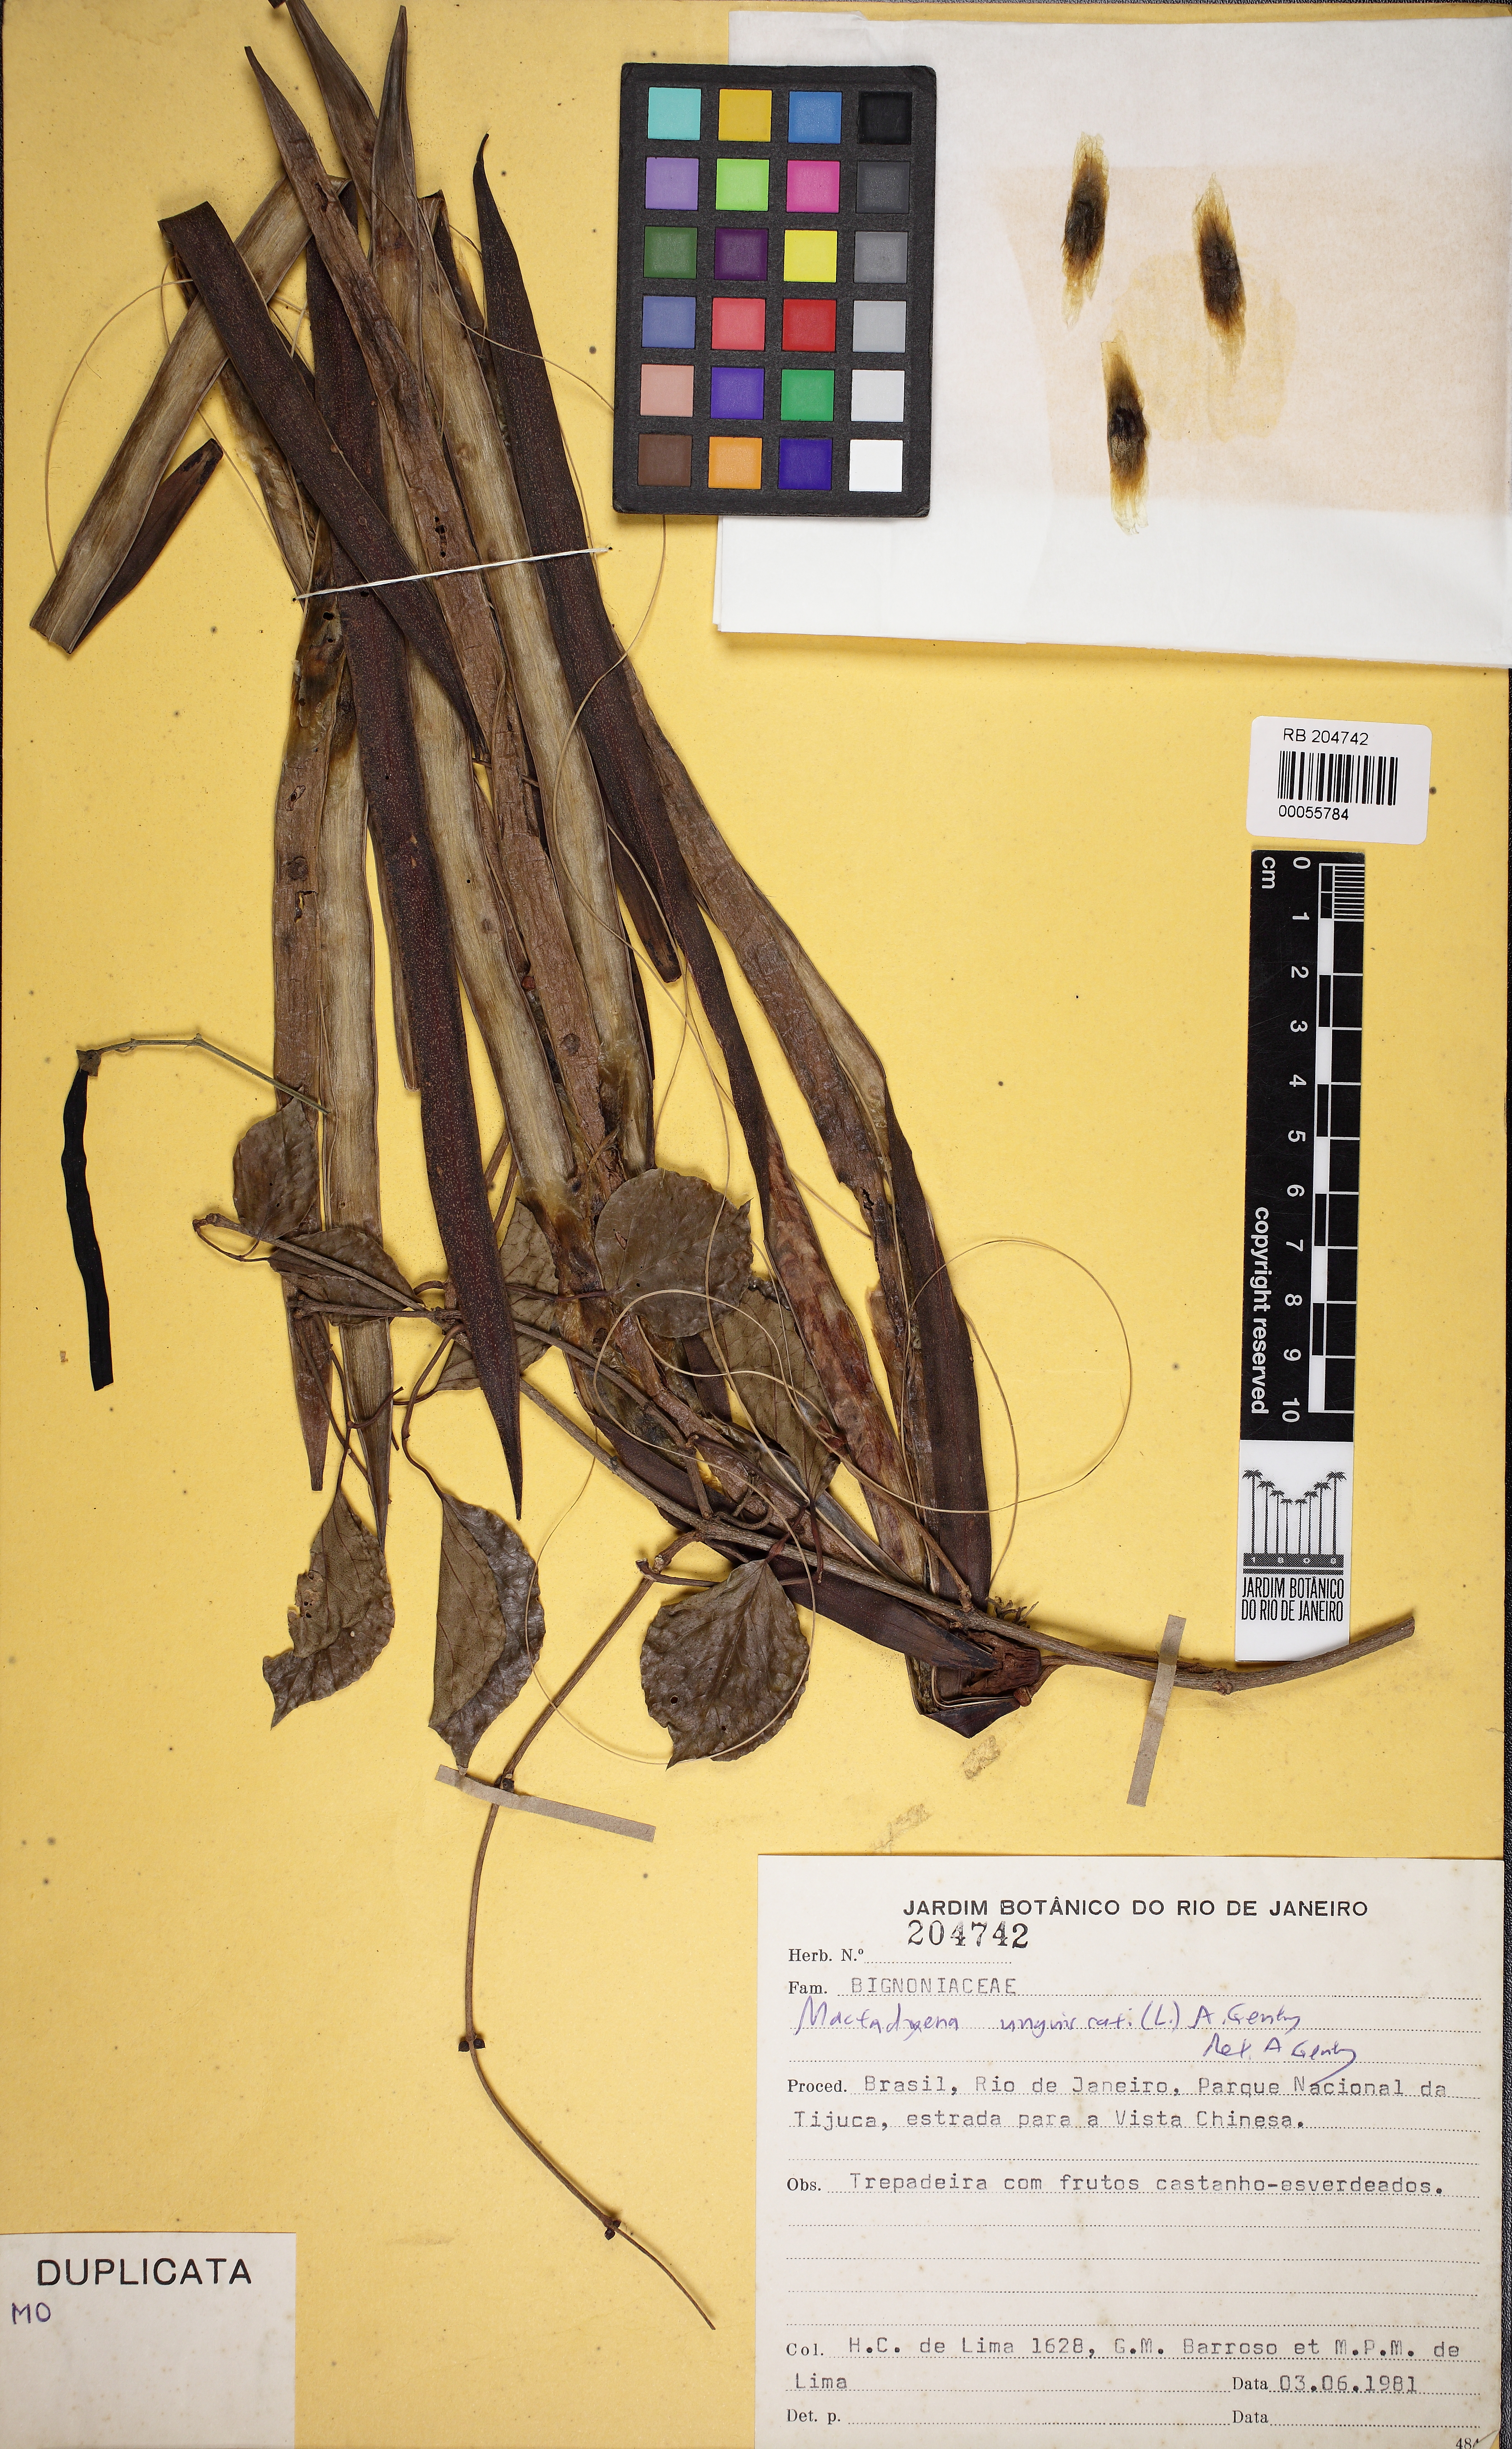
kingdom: Plantae
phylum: Tracheophyta
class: Magnoliopsida
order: Lamiales
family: Bignoniaceae
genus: Dolichandra
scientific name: Dolichandra unguis-cati
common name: Catclaw vine
